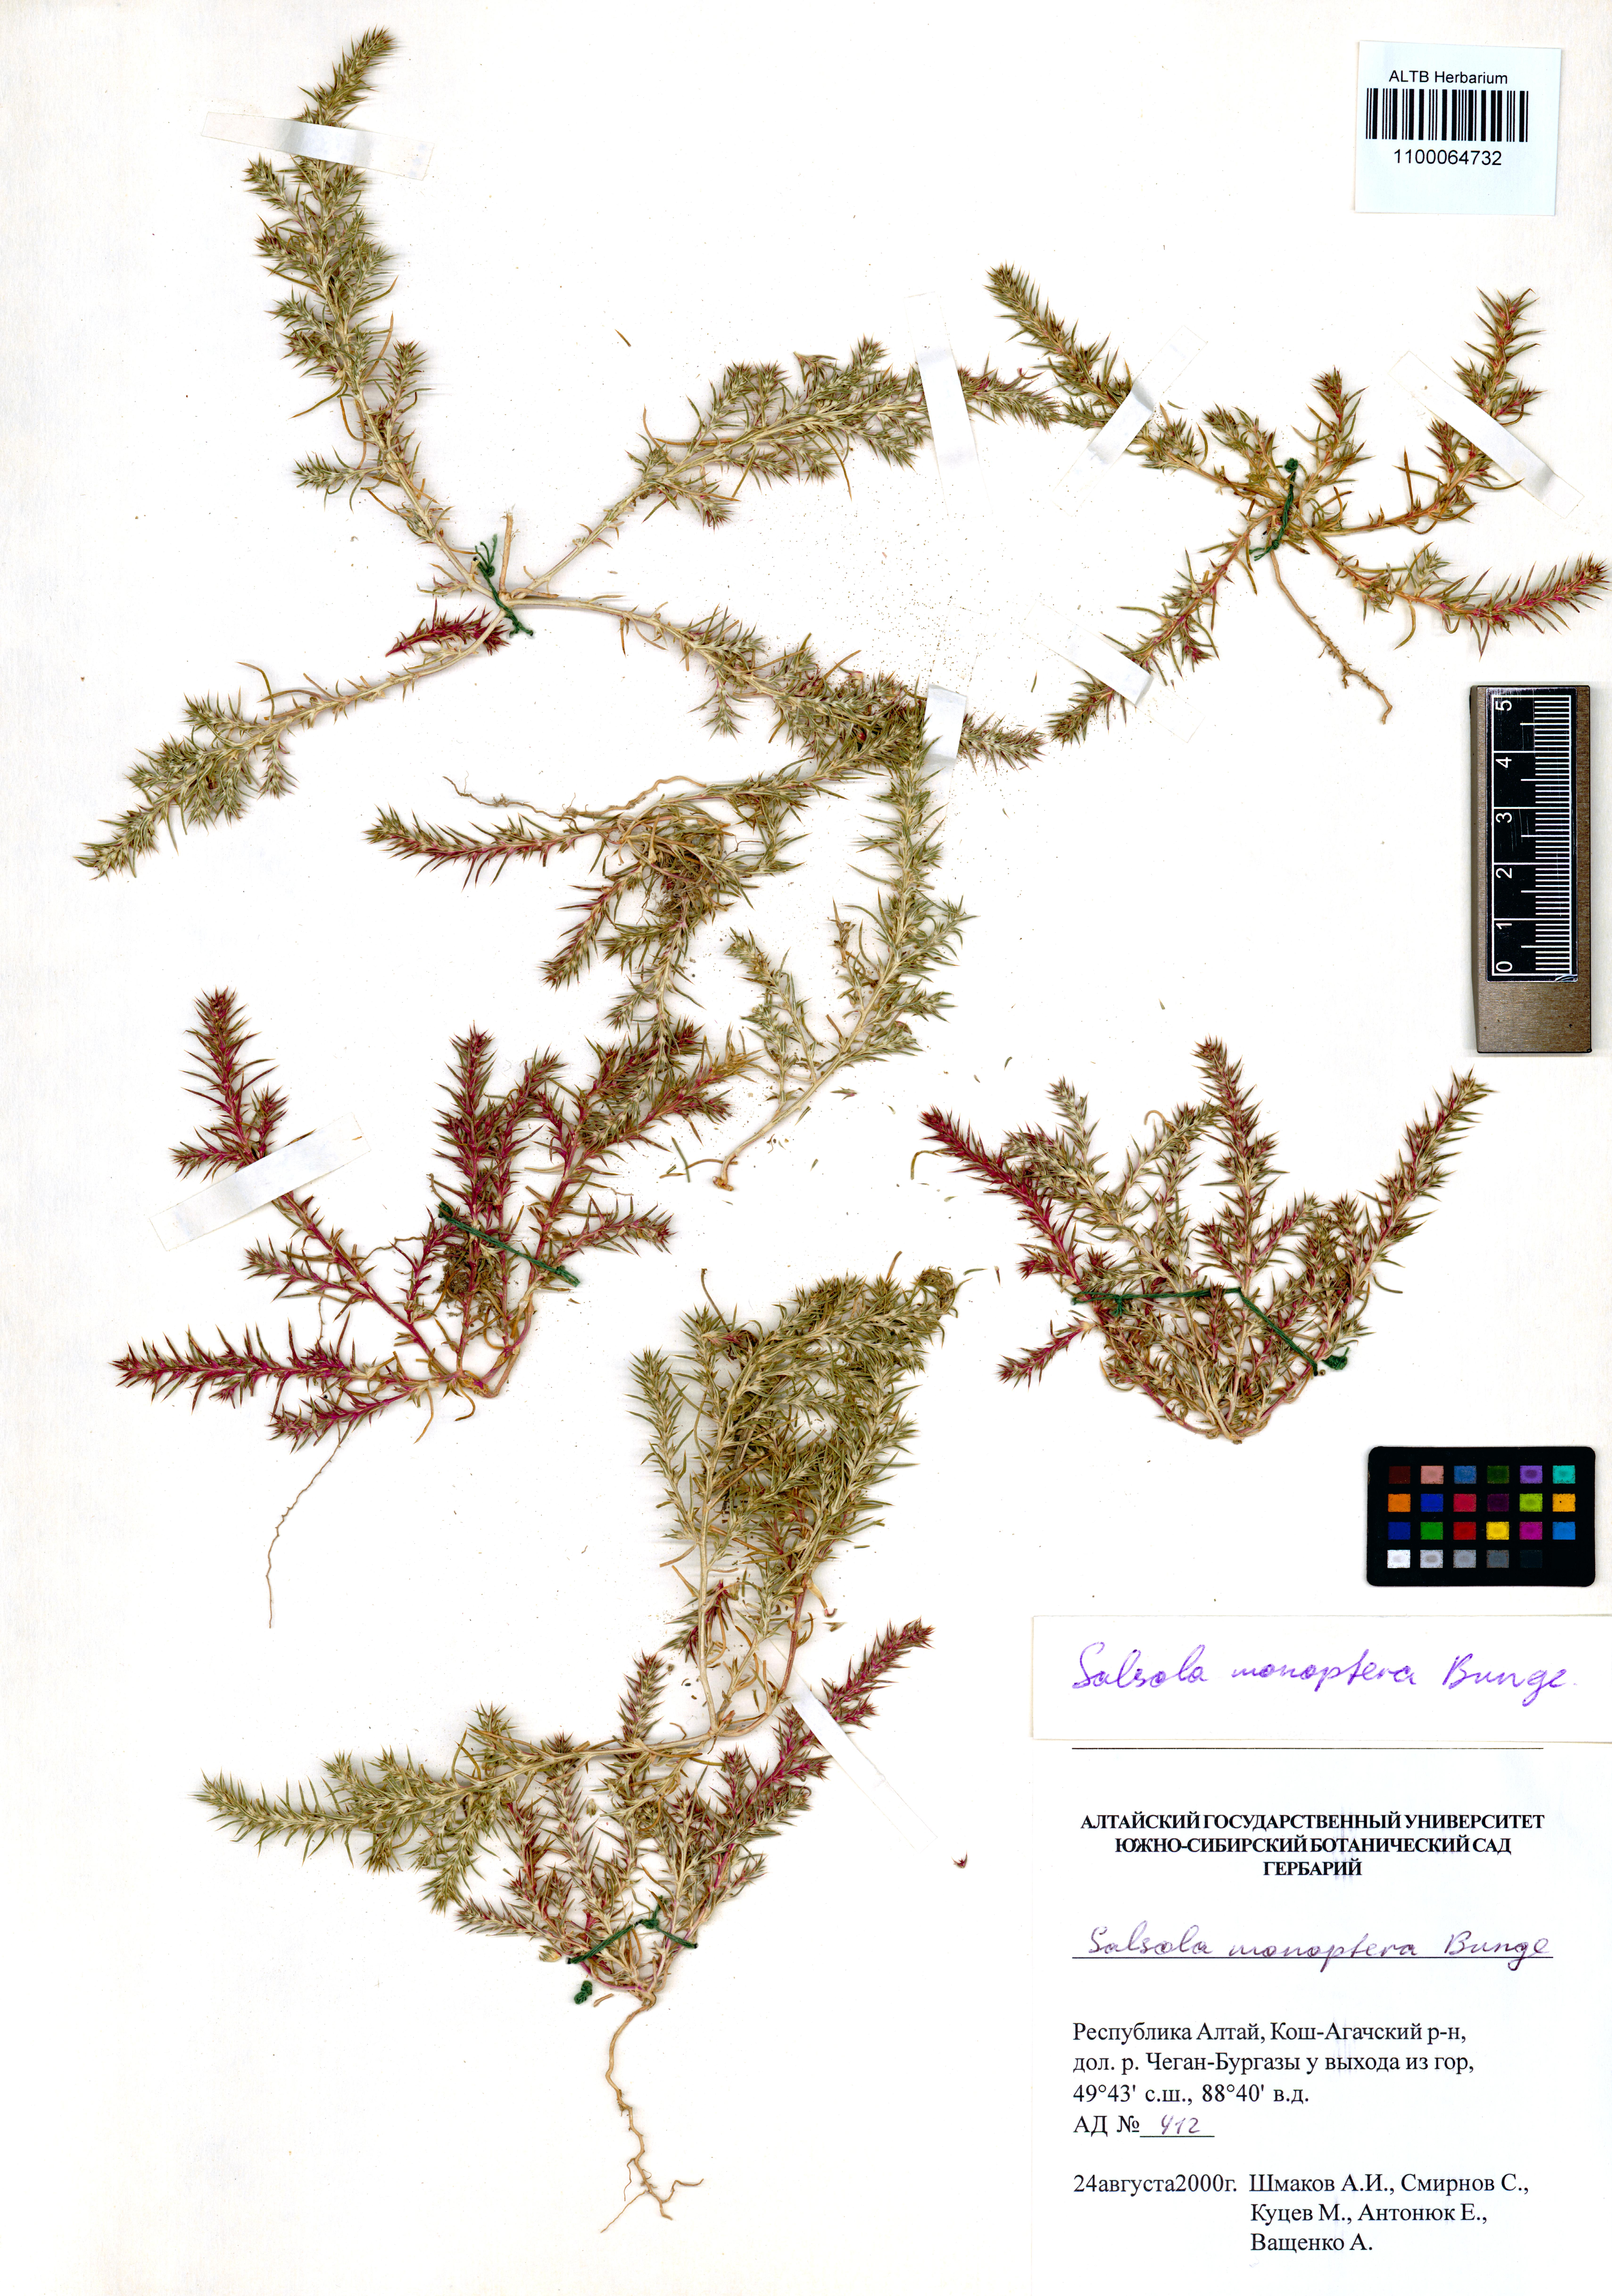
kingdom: Plantae
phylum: Tracheophyta
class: Magnoliopsida
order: Caryophyllales
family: Amaranthaceae
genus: Salsola
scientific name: Salsola monoptera
